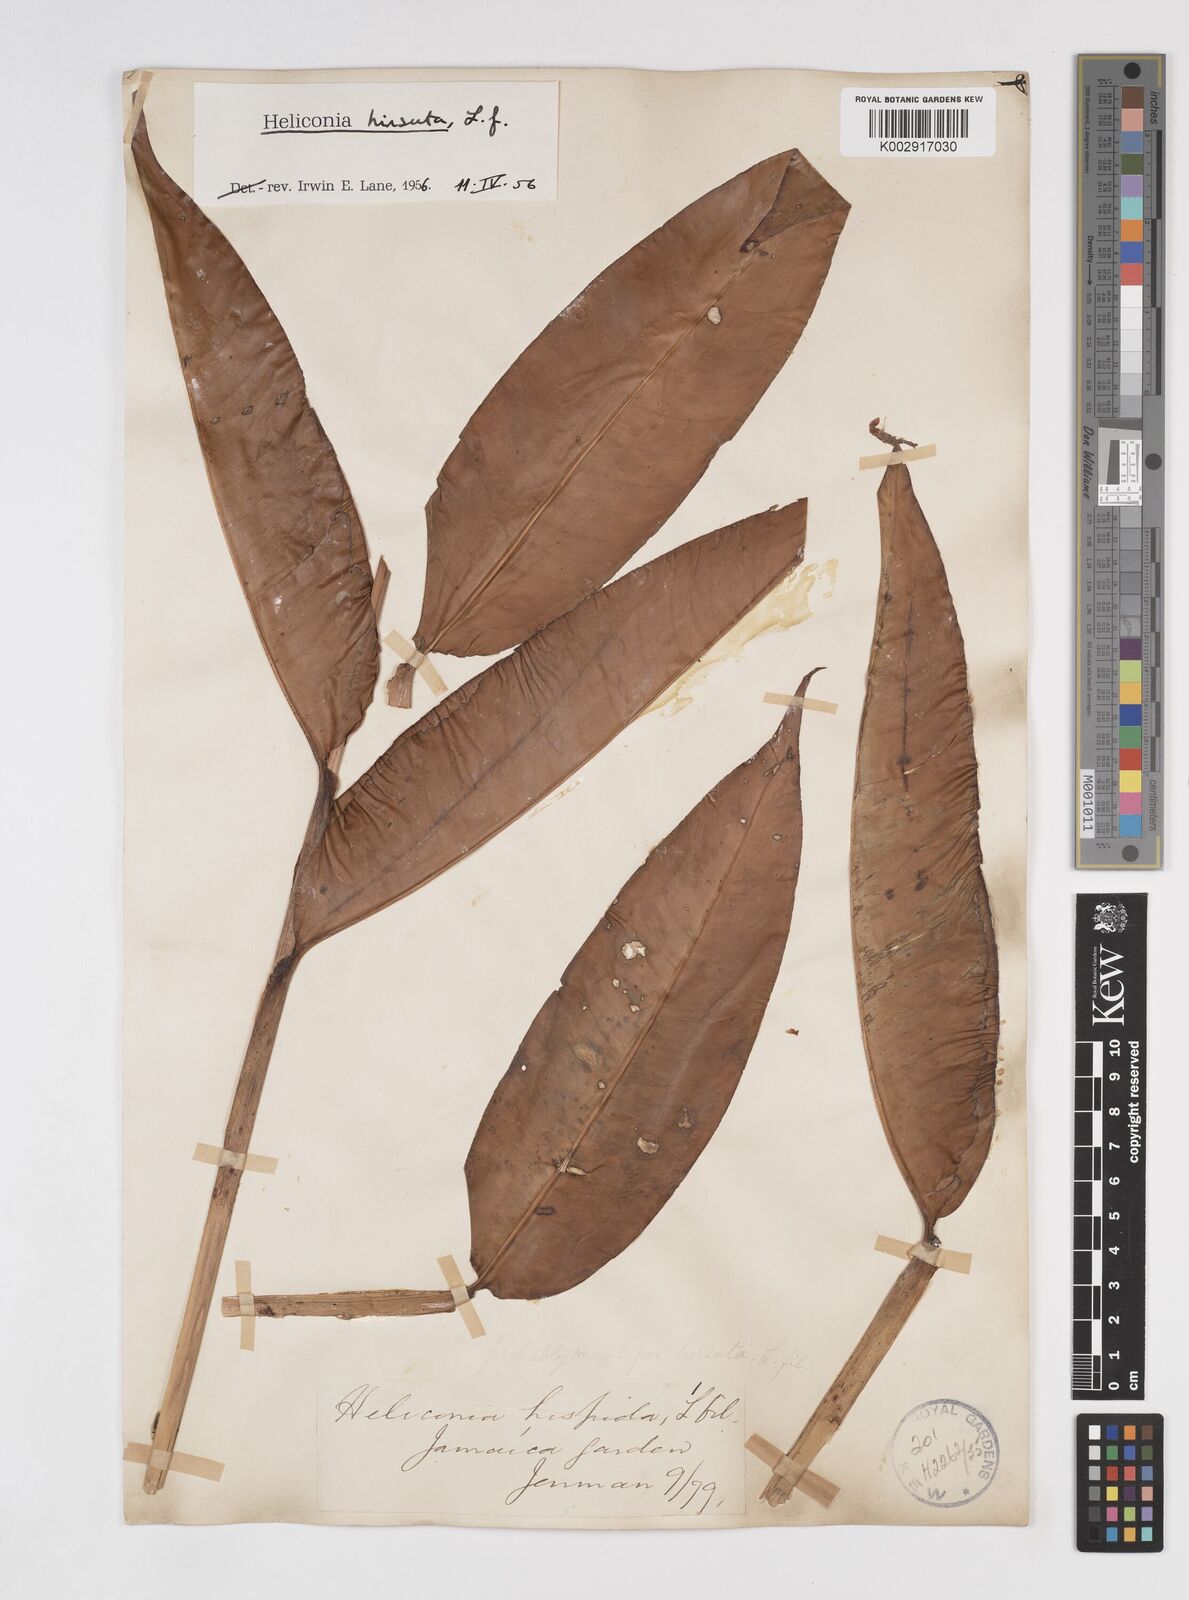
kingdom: Plantae
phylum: Tracheophyta
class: Liliopsida
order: Zingiberales
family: Heliconiaceae
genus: Heliconia
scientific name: Heliconia hirsuta
